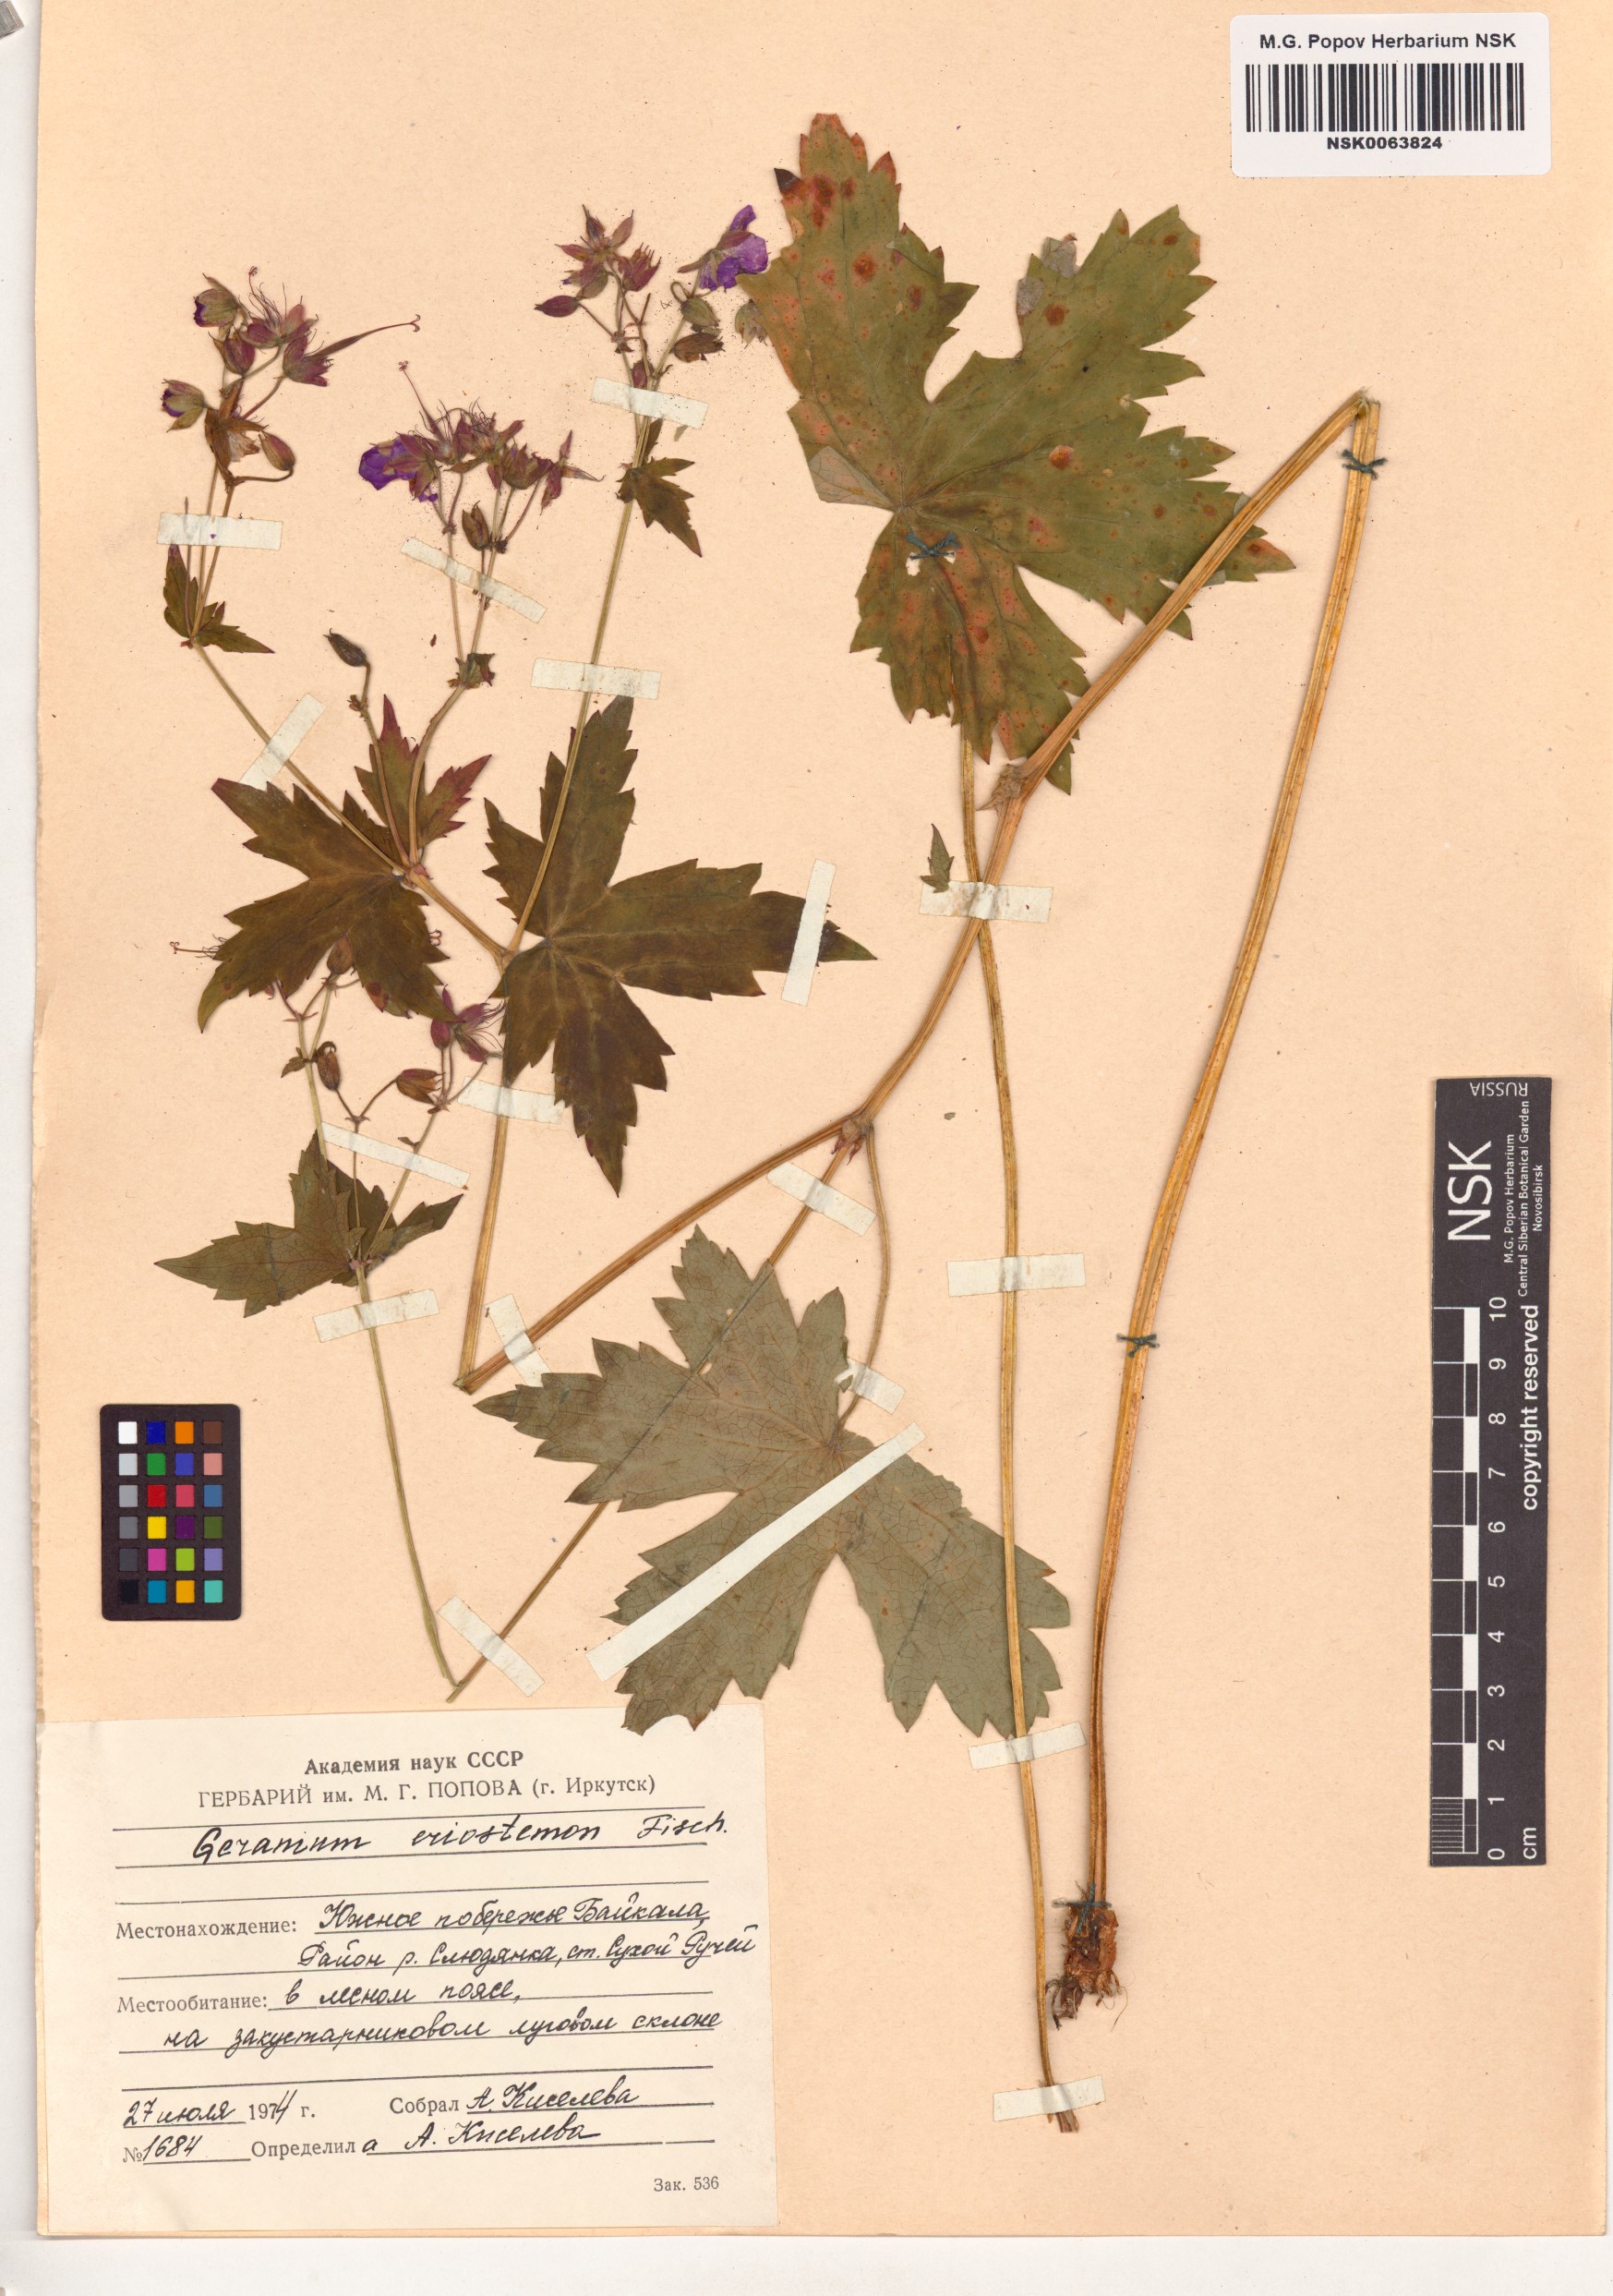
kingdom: Plantae
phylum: Tracheophyta
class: Magnoliopsida
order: Geraniales
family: Geraniaceae
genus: Geranium
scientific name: Geranium platyanthum
